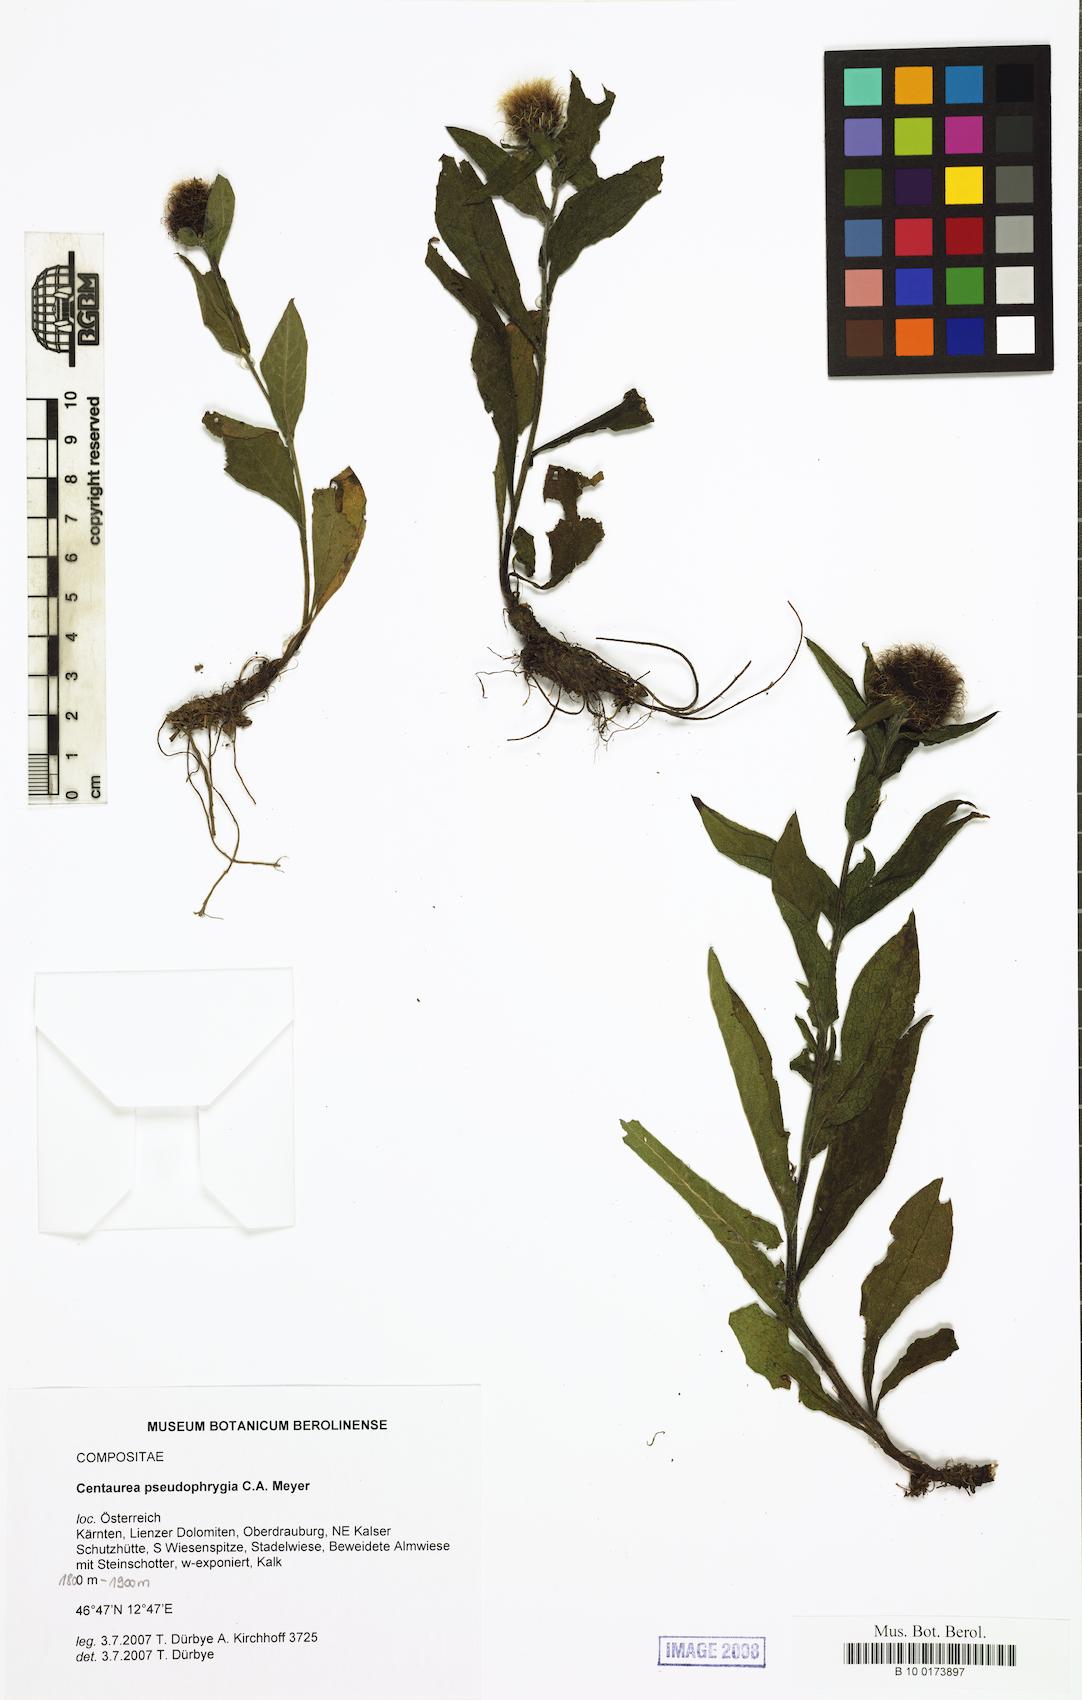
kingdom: Plantae
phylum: Tracheophyta
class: Magnoliopsida
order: Asterales
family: Asteraceae
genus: Centaurea
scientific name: Centaurea pseudophrygia
